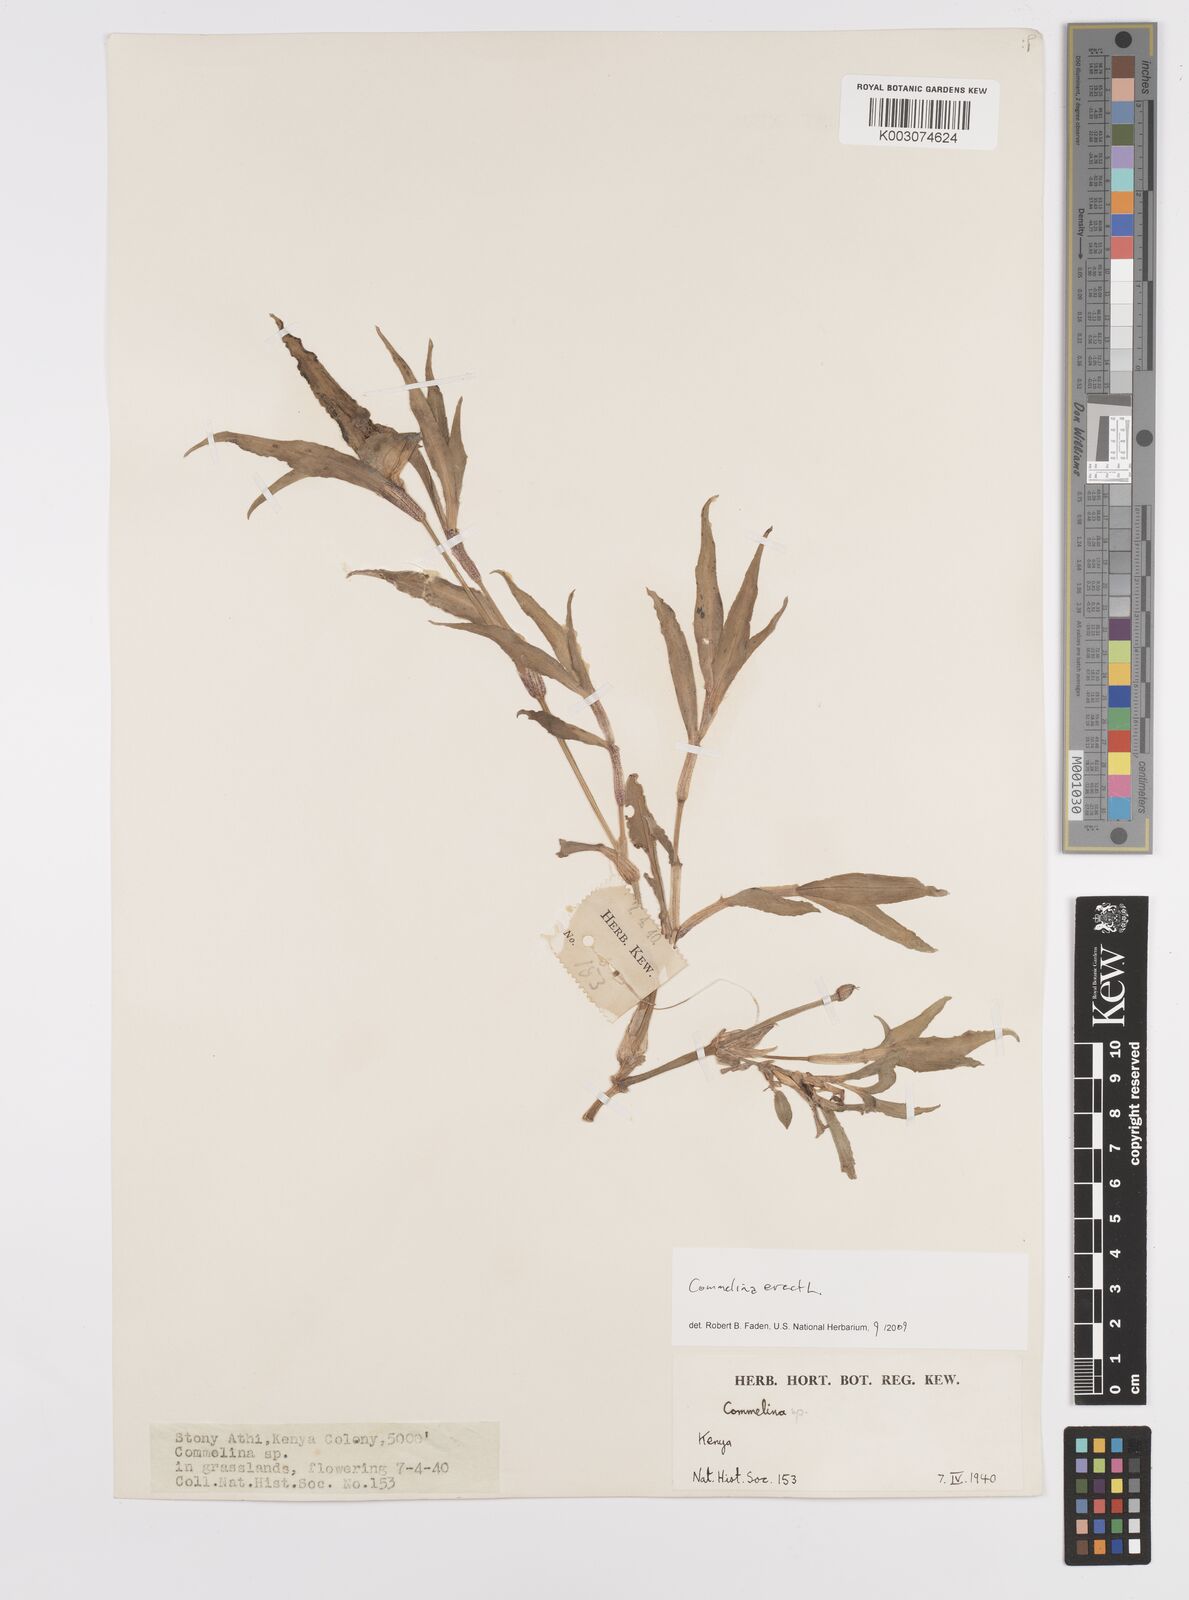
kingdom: Plantae
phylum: Tracheophyta
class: Liliopsida
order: Commelinales
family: Commelinaceae
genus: Commelina
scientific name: Commelina erecta
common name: Blousel blommetjie
